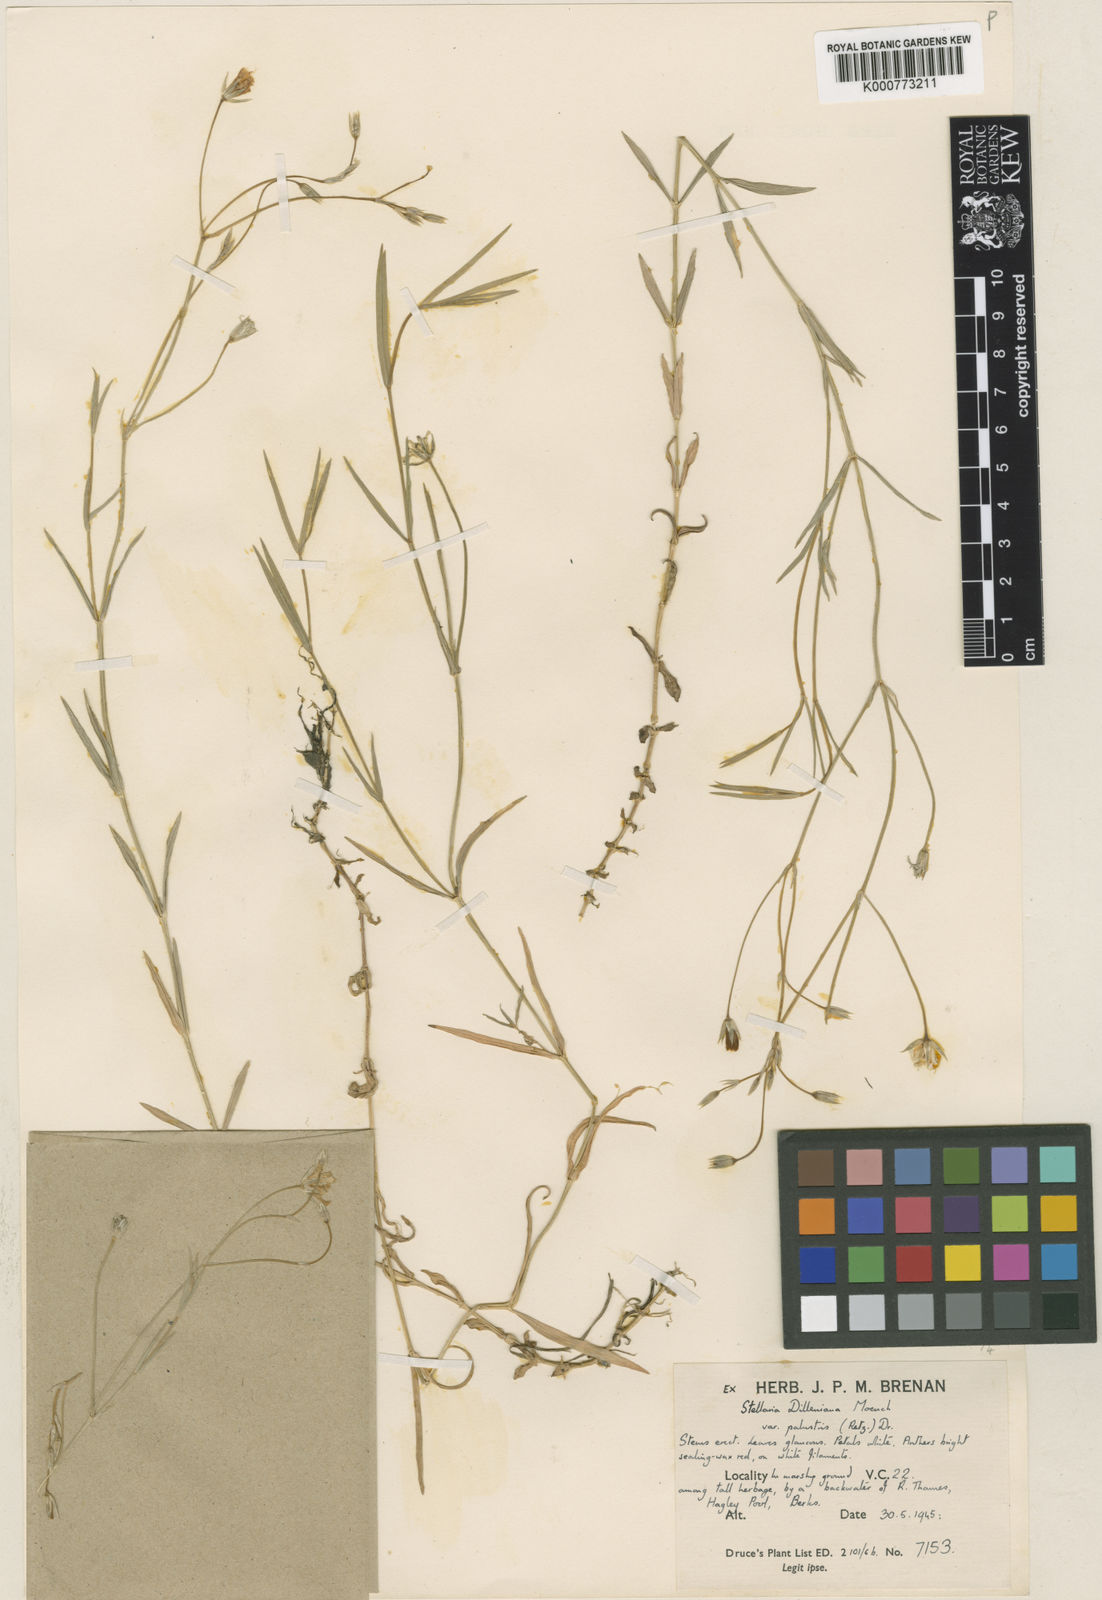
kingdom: Plantae
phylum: Tracheophyta
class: Magnoliopsida
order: Caryophyllales
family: Caryophyllaceae
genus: Stellaria
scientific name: Stellaria
